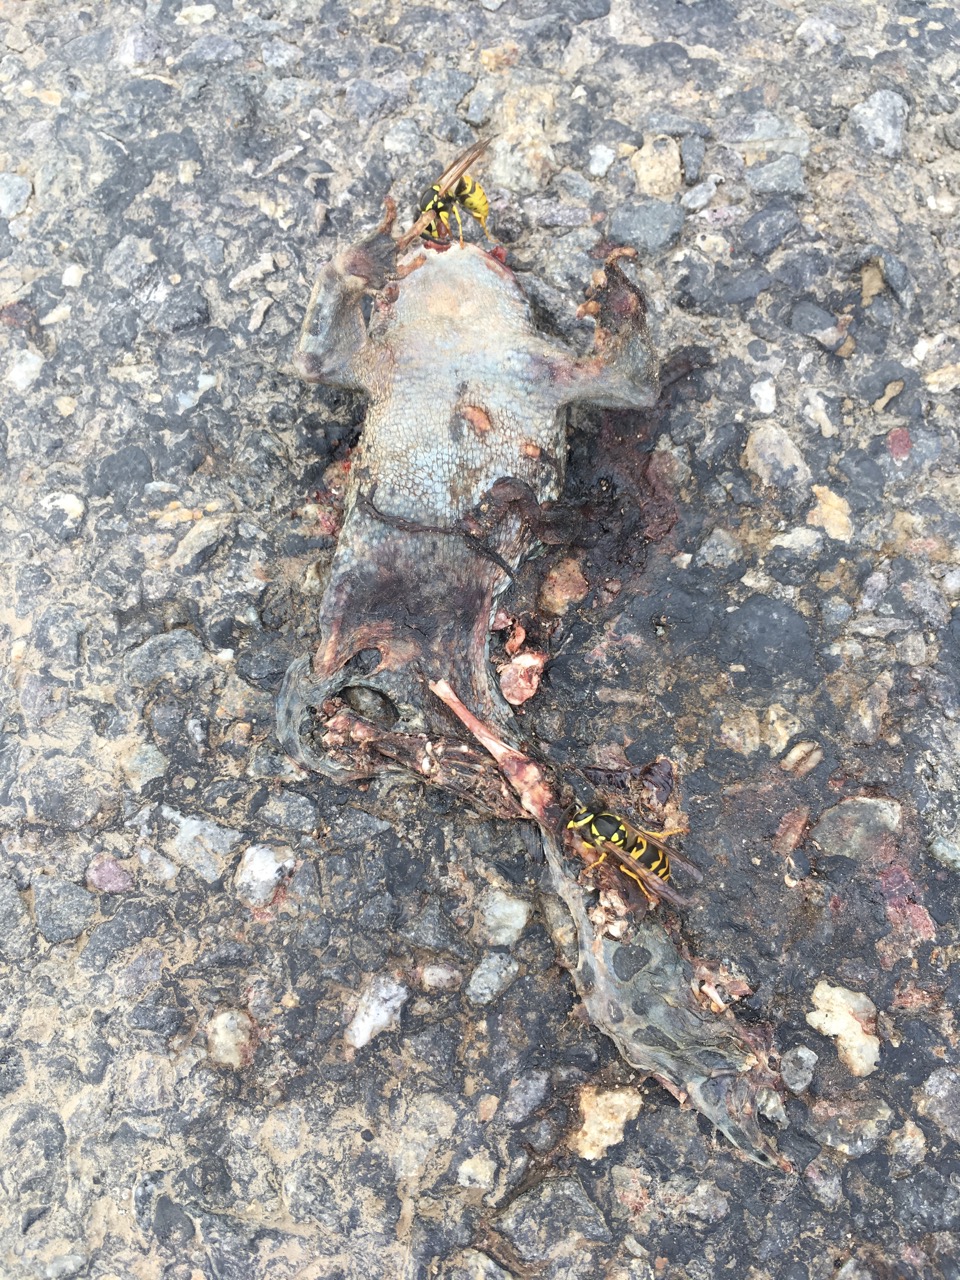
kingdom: Animalia
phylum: Chordata
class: Amphibia
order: Anura
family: Bufonidae
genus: Bufotes
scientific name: Bufotes viridis
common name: European green toad
